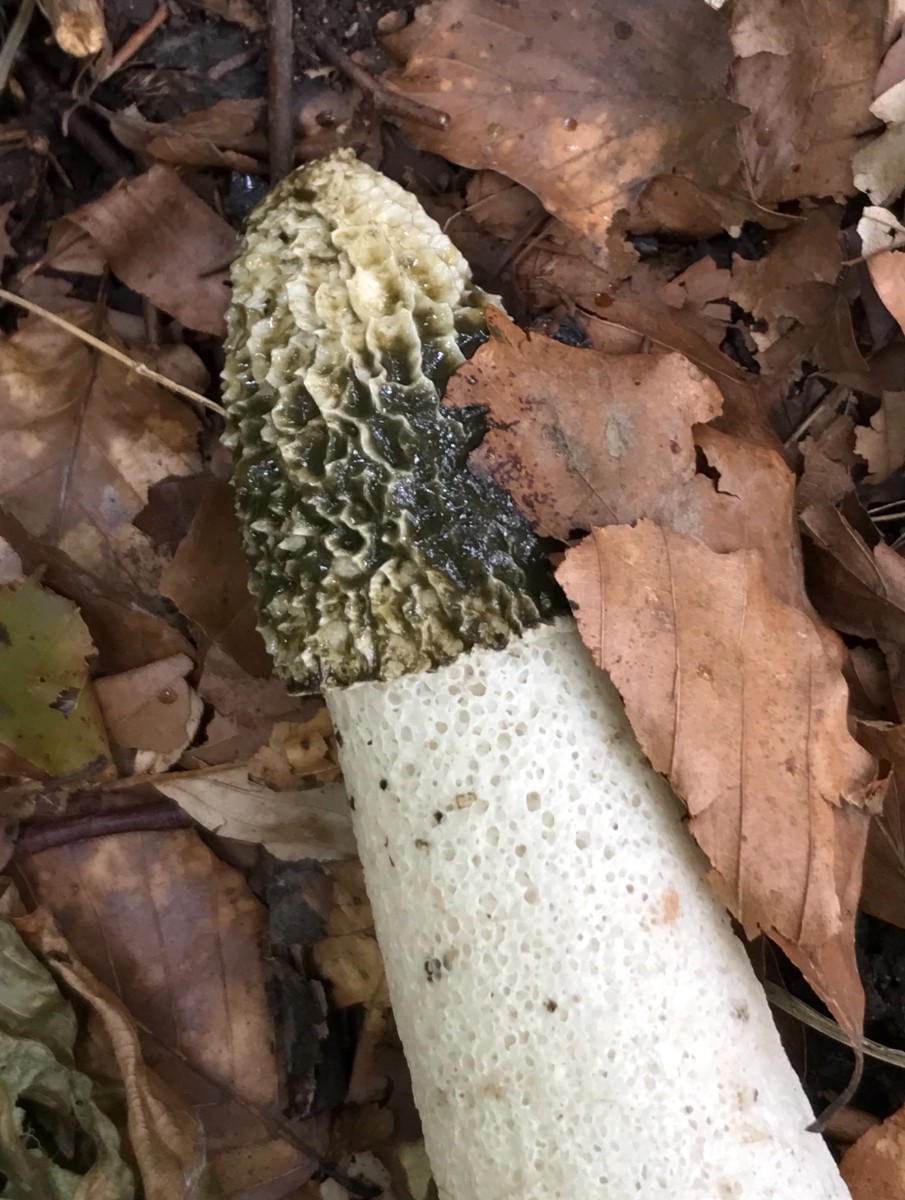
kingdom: Fungi
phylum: Basidiomycota
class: Agaricomycetes
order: Phallales
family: Phallaceae
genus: Phallus
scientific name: Phallus impudicus
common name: almindelig stinksvamp
